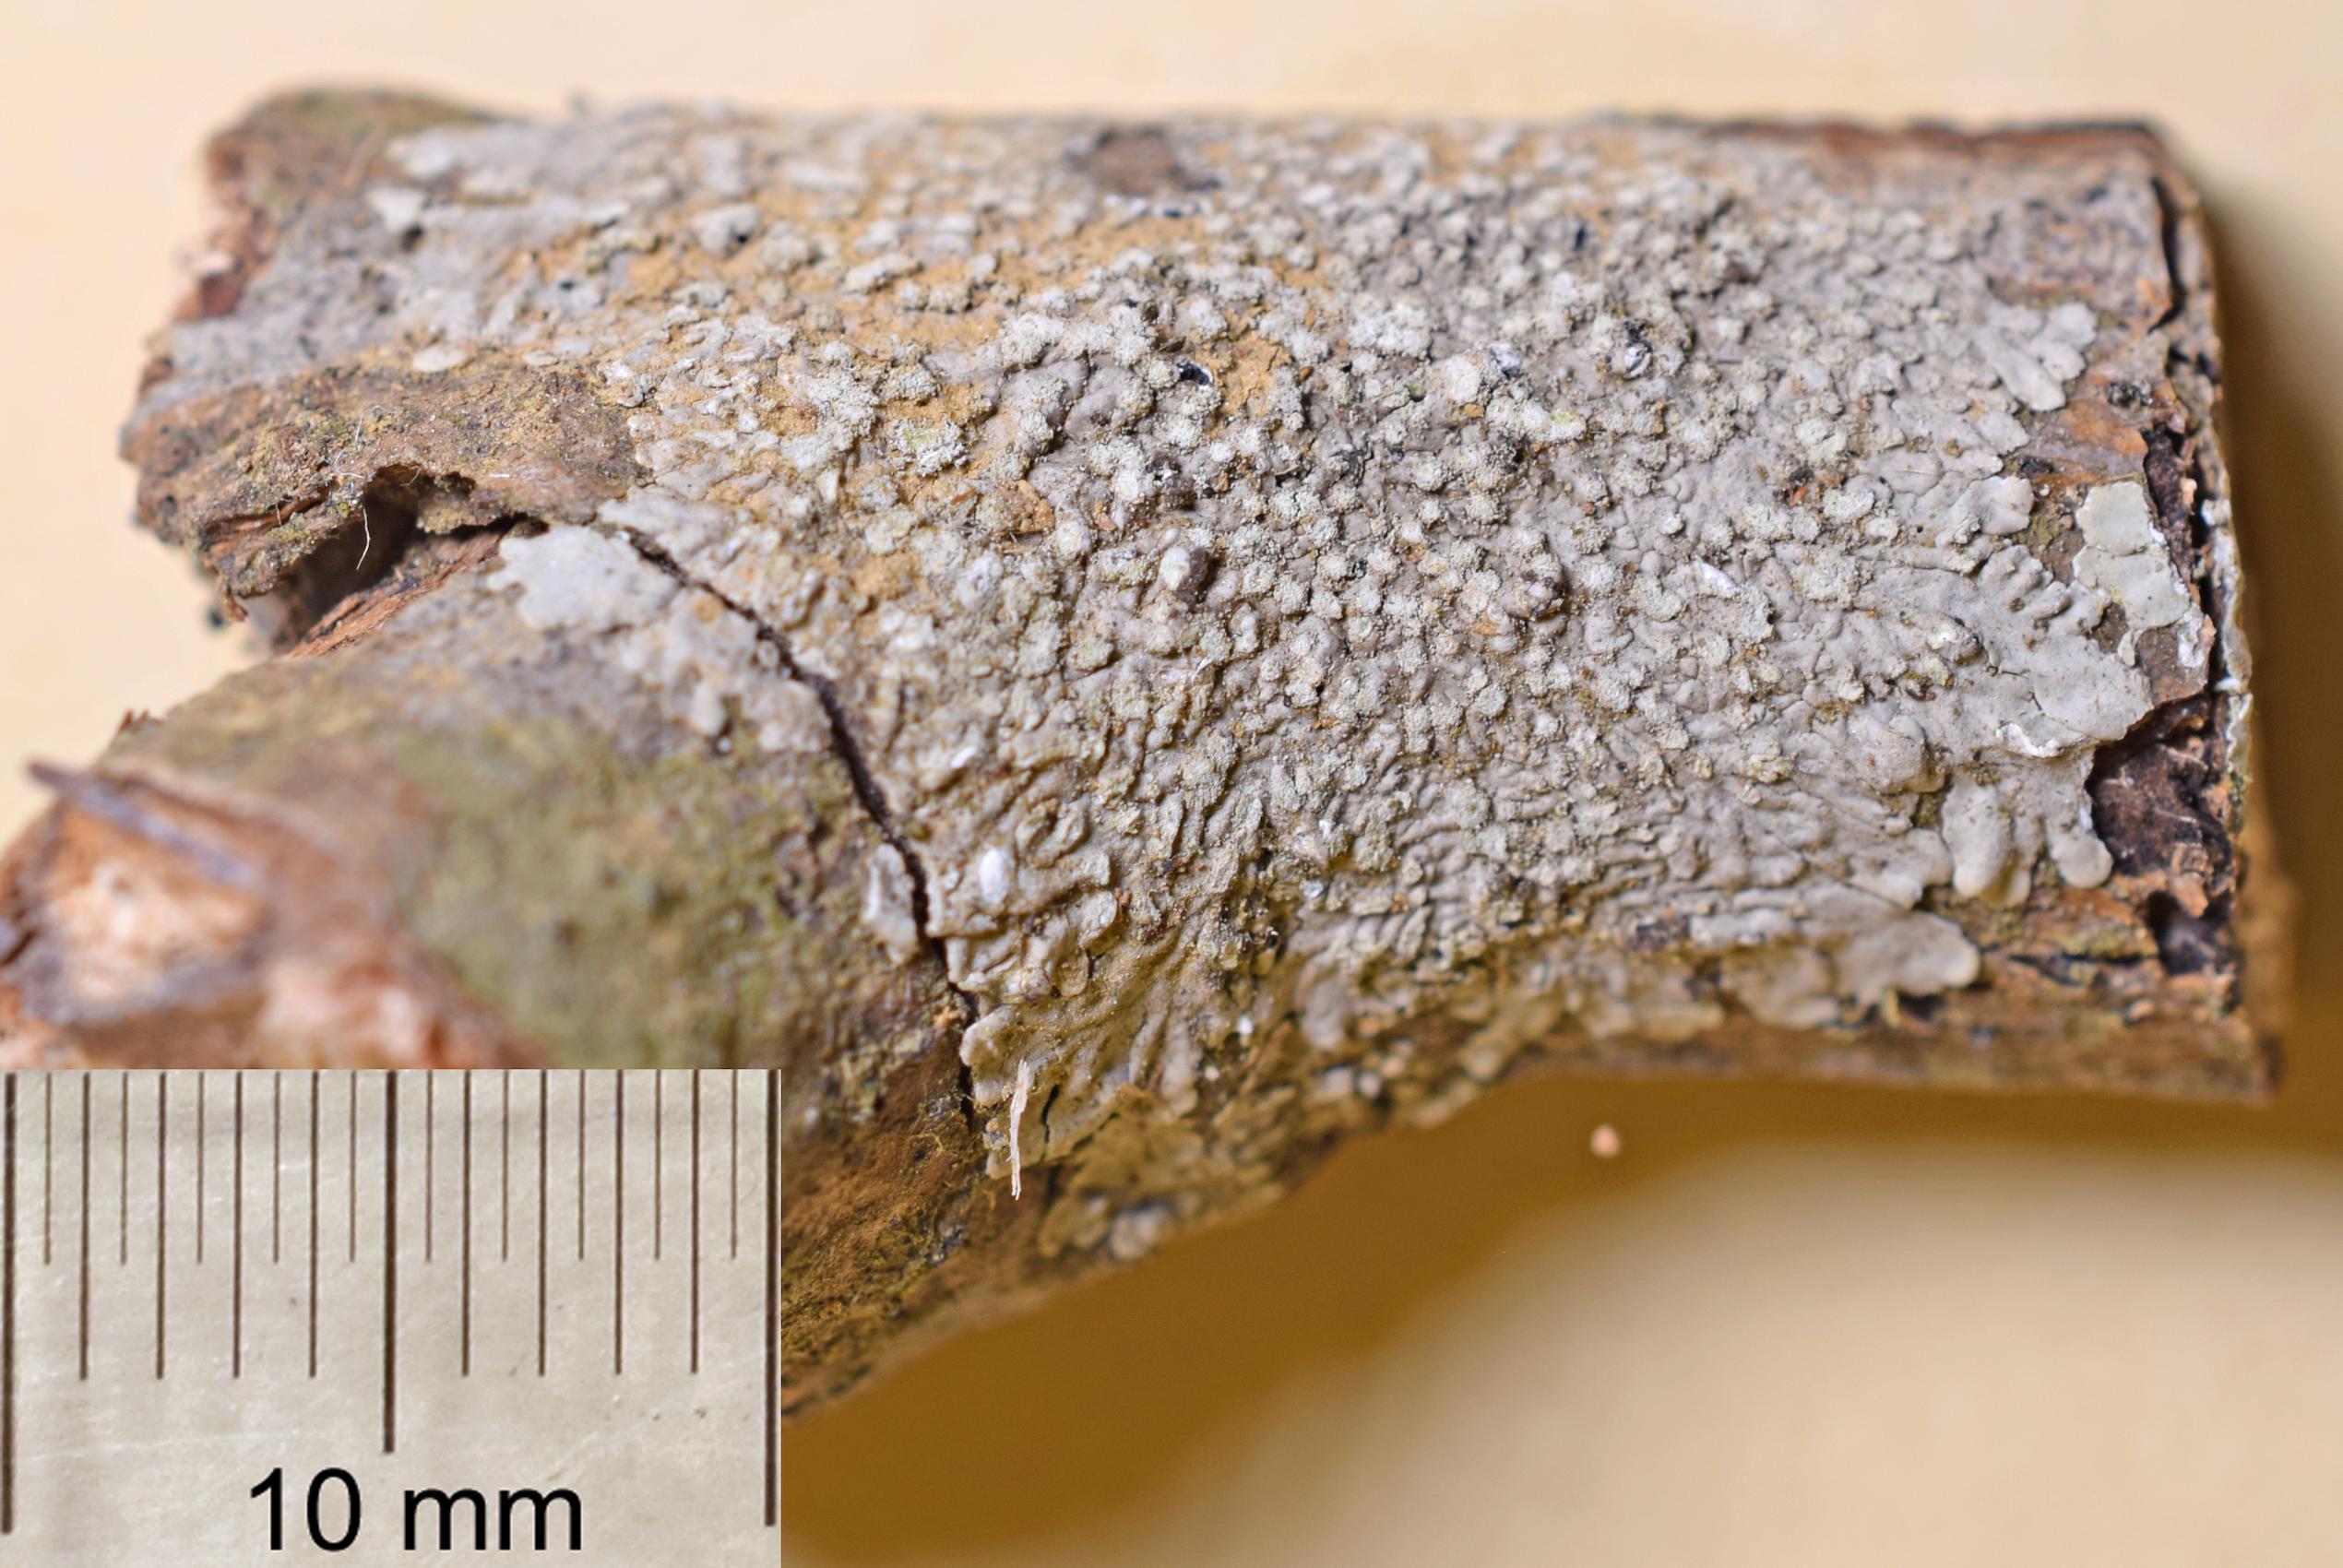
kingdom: Fungi
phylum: Ascomycota
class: Lecanoromycetes
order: Teloschistales
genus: Dirinaria
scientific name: Dirinaria
